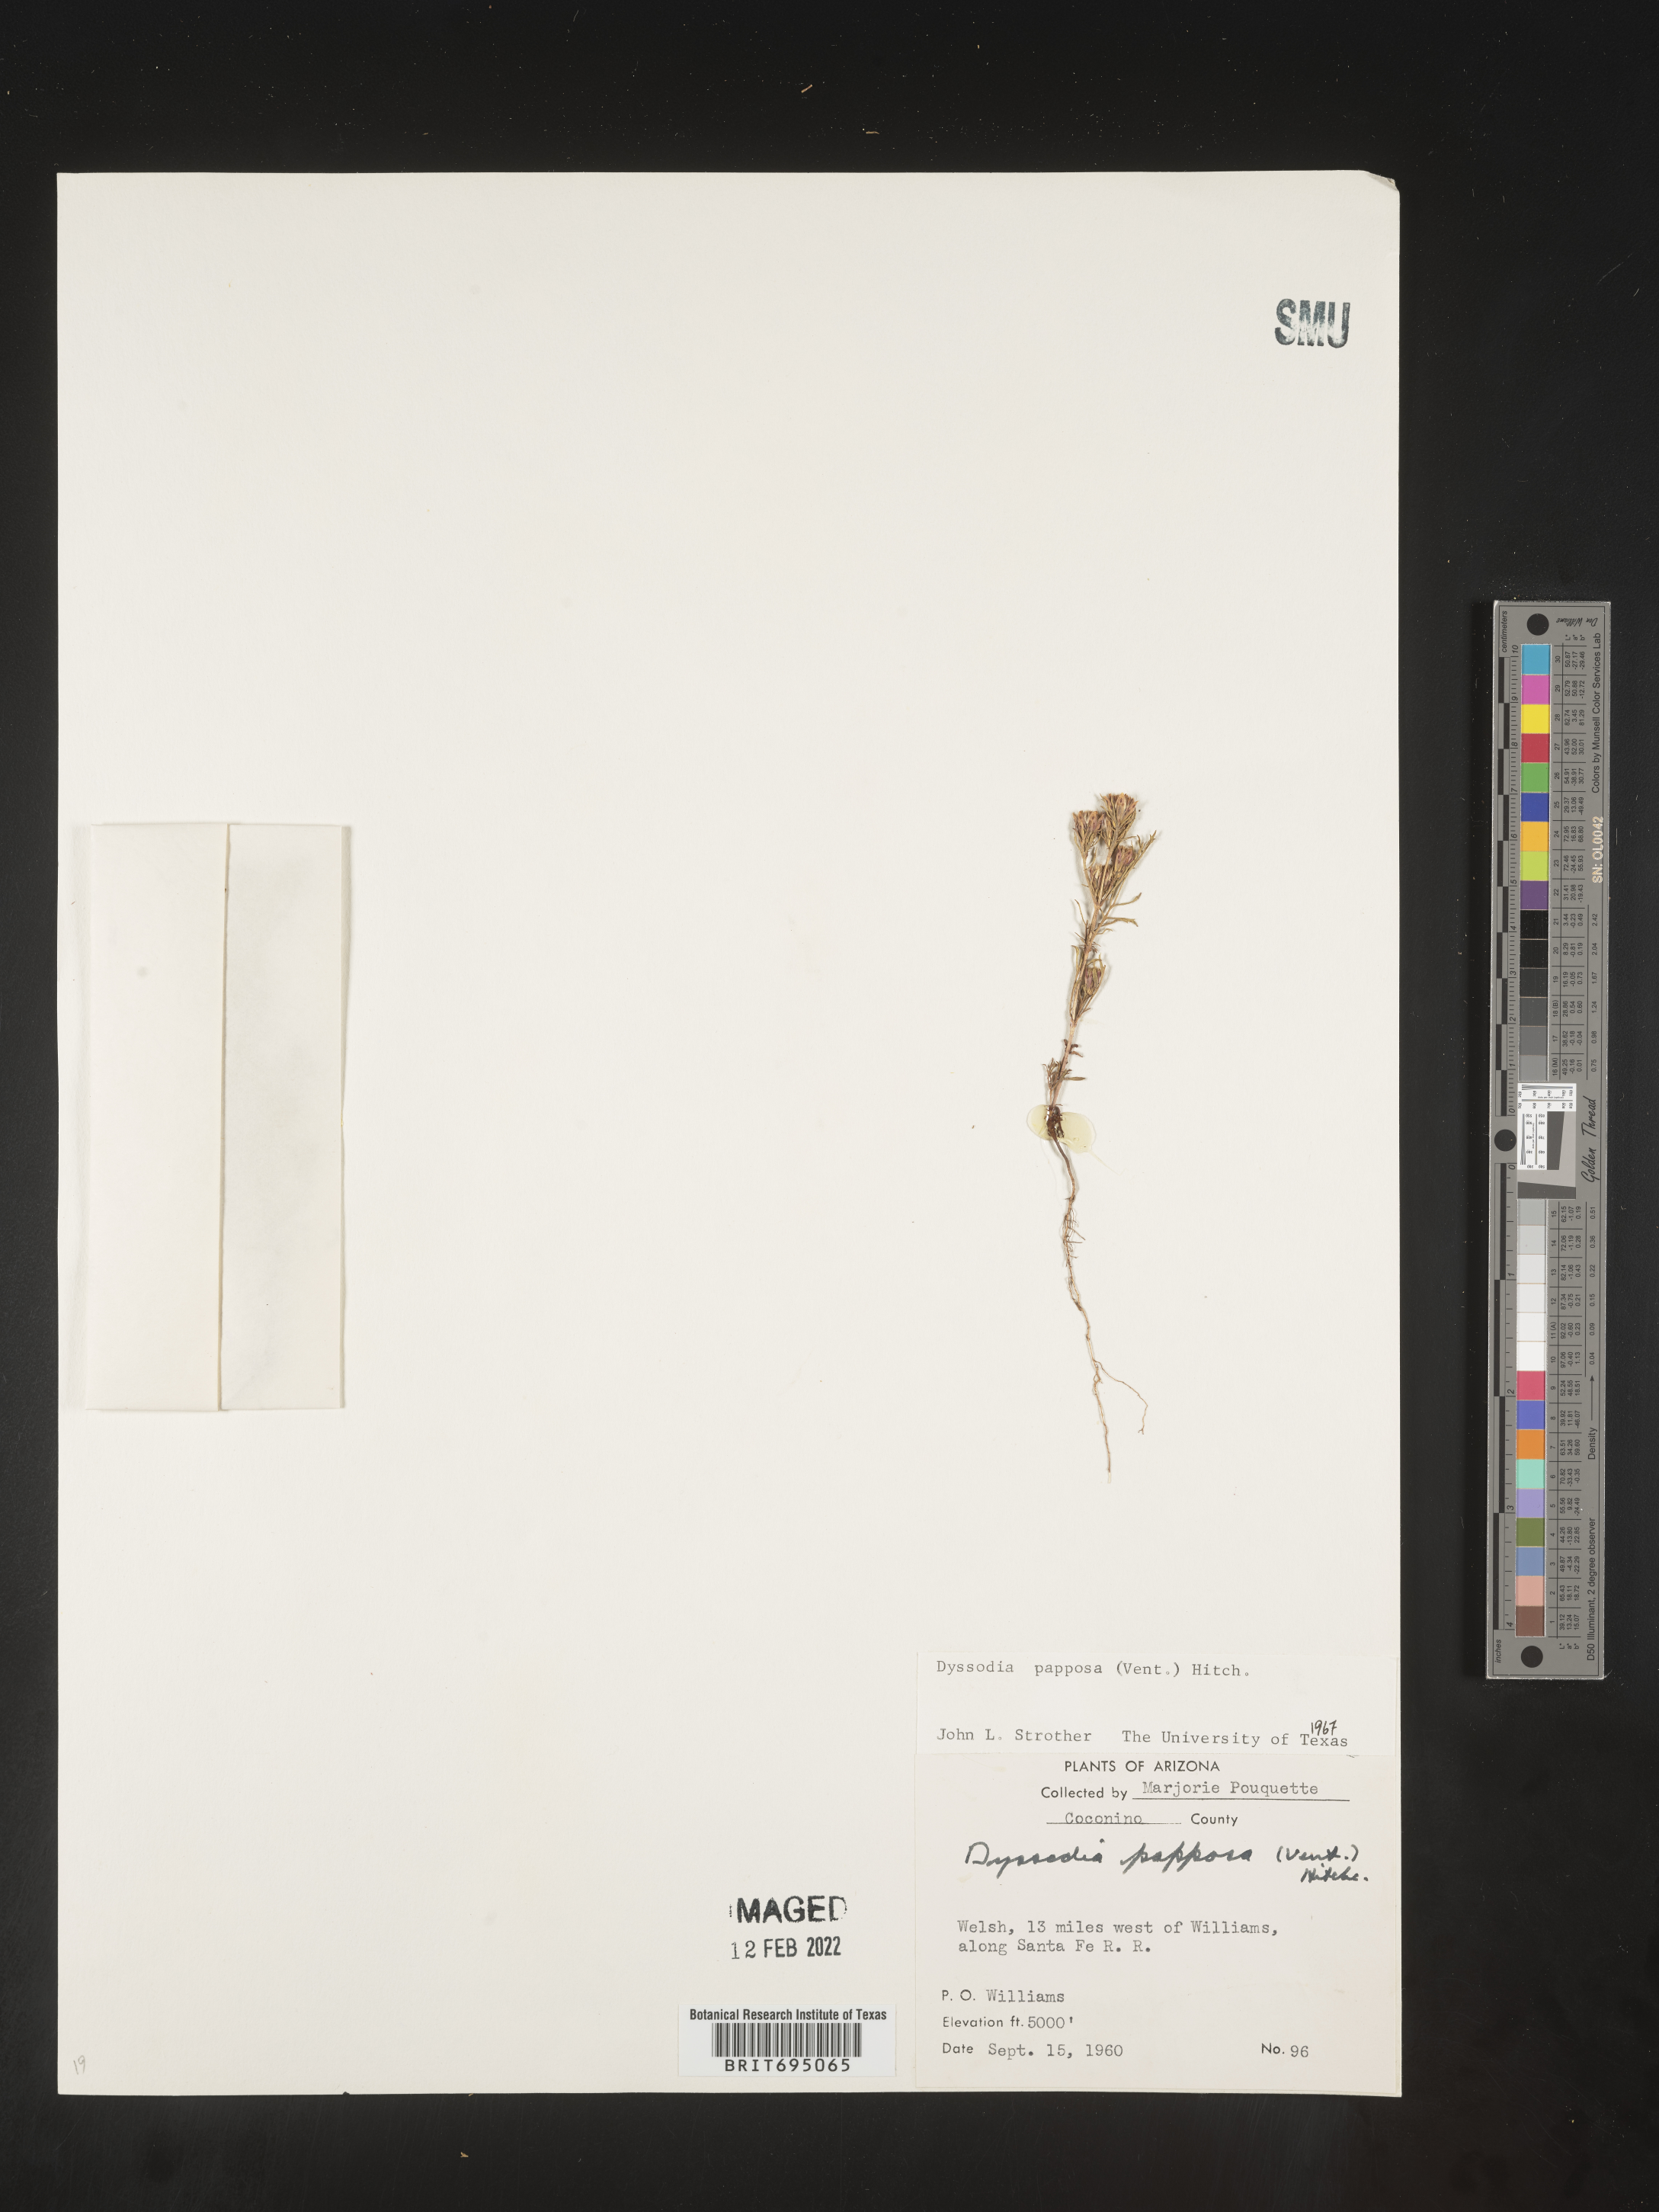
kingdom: Plantae
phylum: Tracheophyta
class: Magnoliopsida
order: Asterales
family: Asteraceae
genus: Dyssodia
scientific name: Dyssodia papposa
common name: Dogweed
